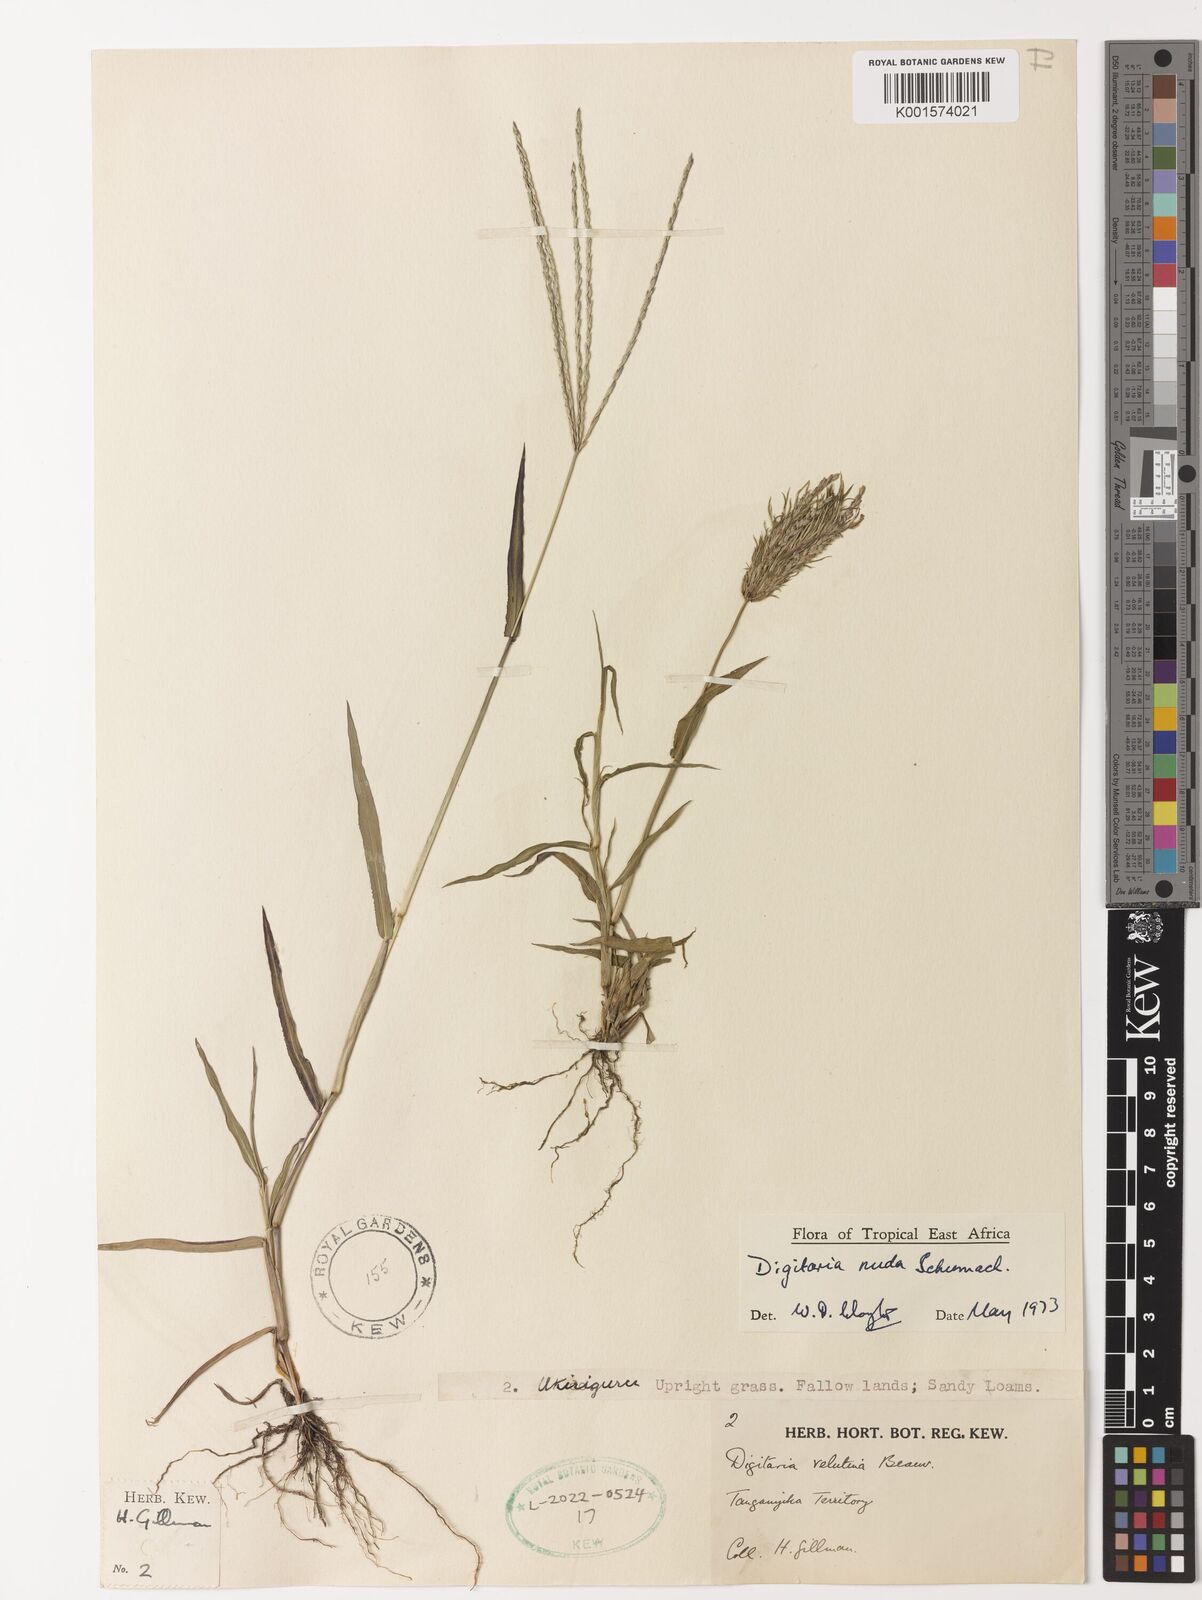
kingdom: Plantae
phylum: Tracheophyta
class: Liliopsida
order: Poales
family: Poaceae
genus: Digitaria
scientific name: Digitaria nuda
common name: Naked crabgrass
